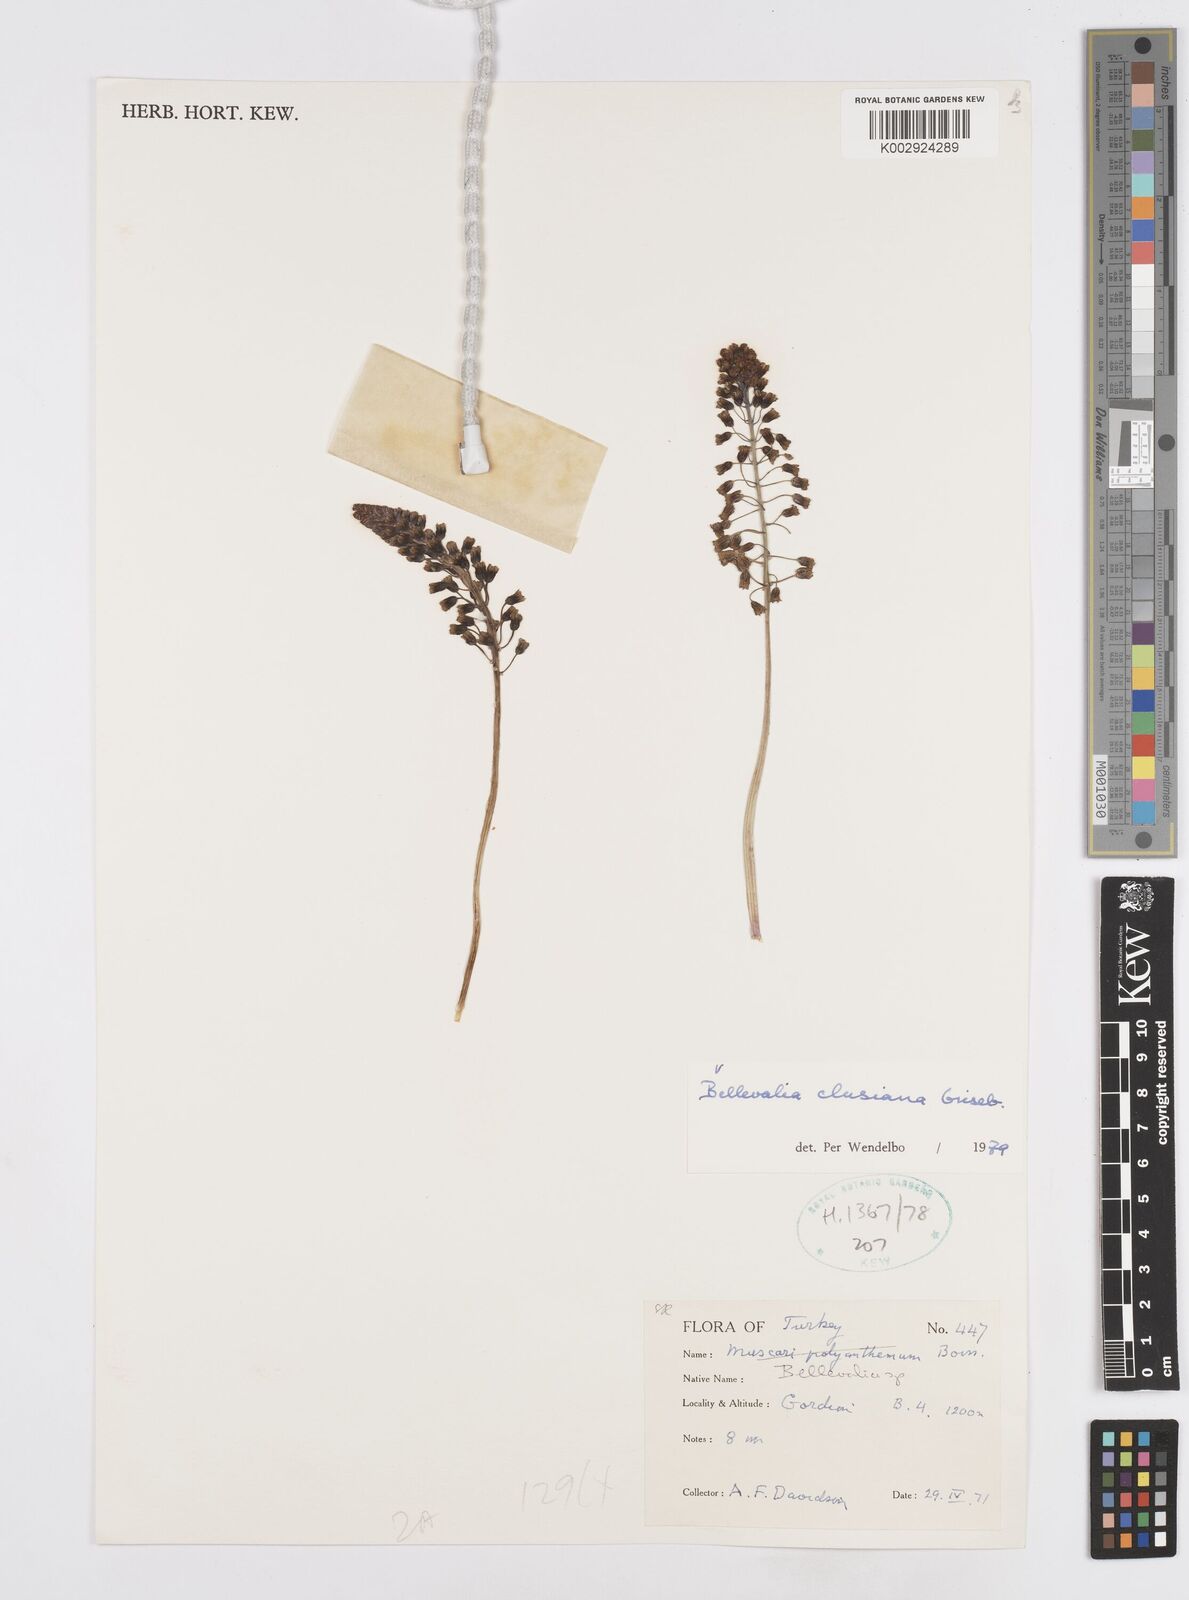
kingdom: Plantae
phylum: Tracheophyta
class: Liliopsida
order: Asparagales
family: Asparagaceae
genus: Bellevalia
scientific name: Bellevalia clusiana
